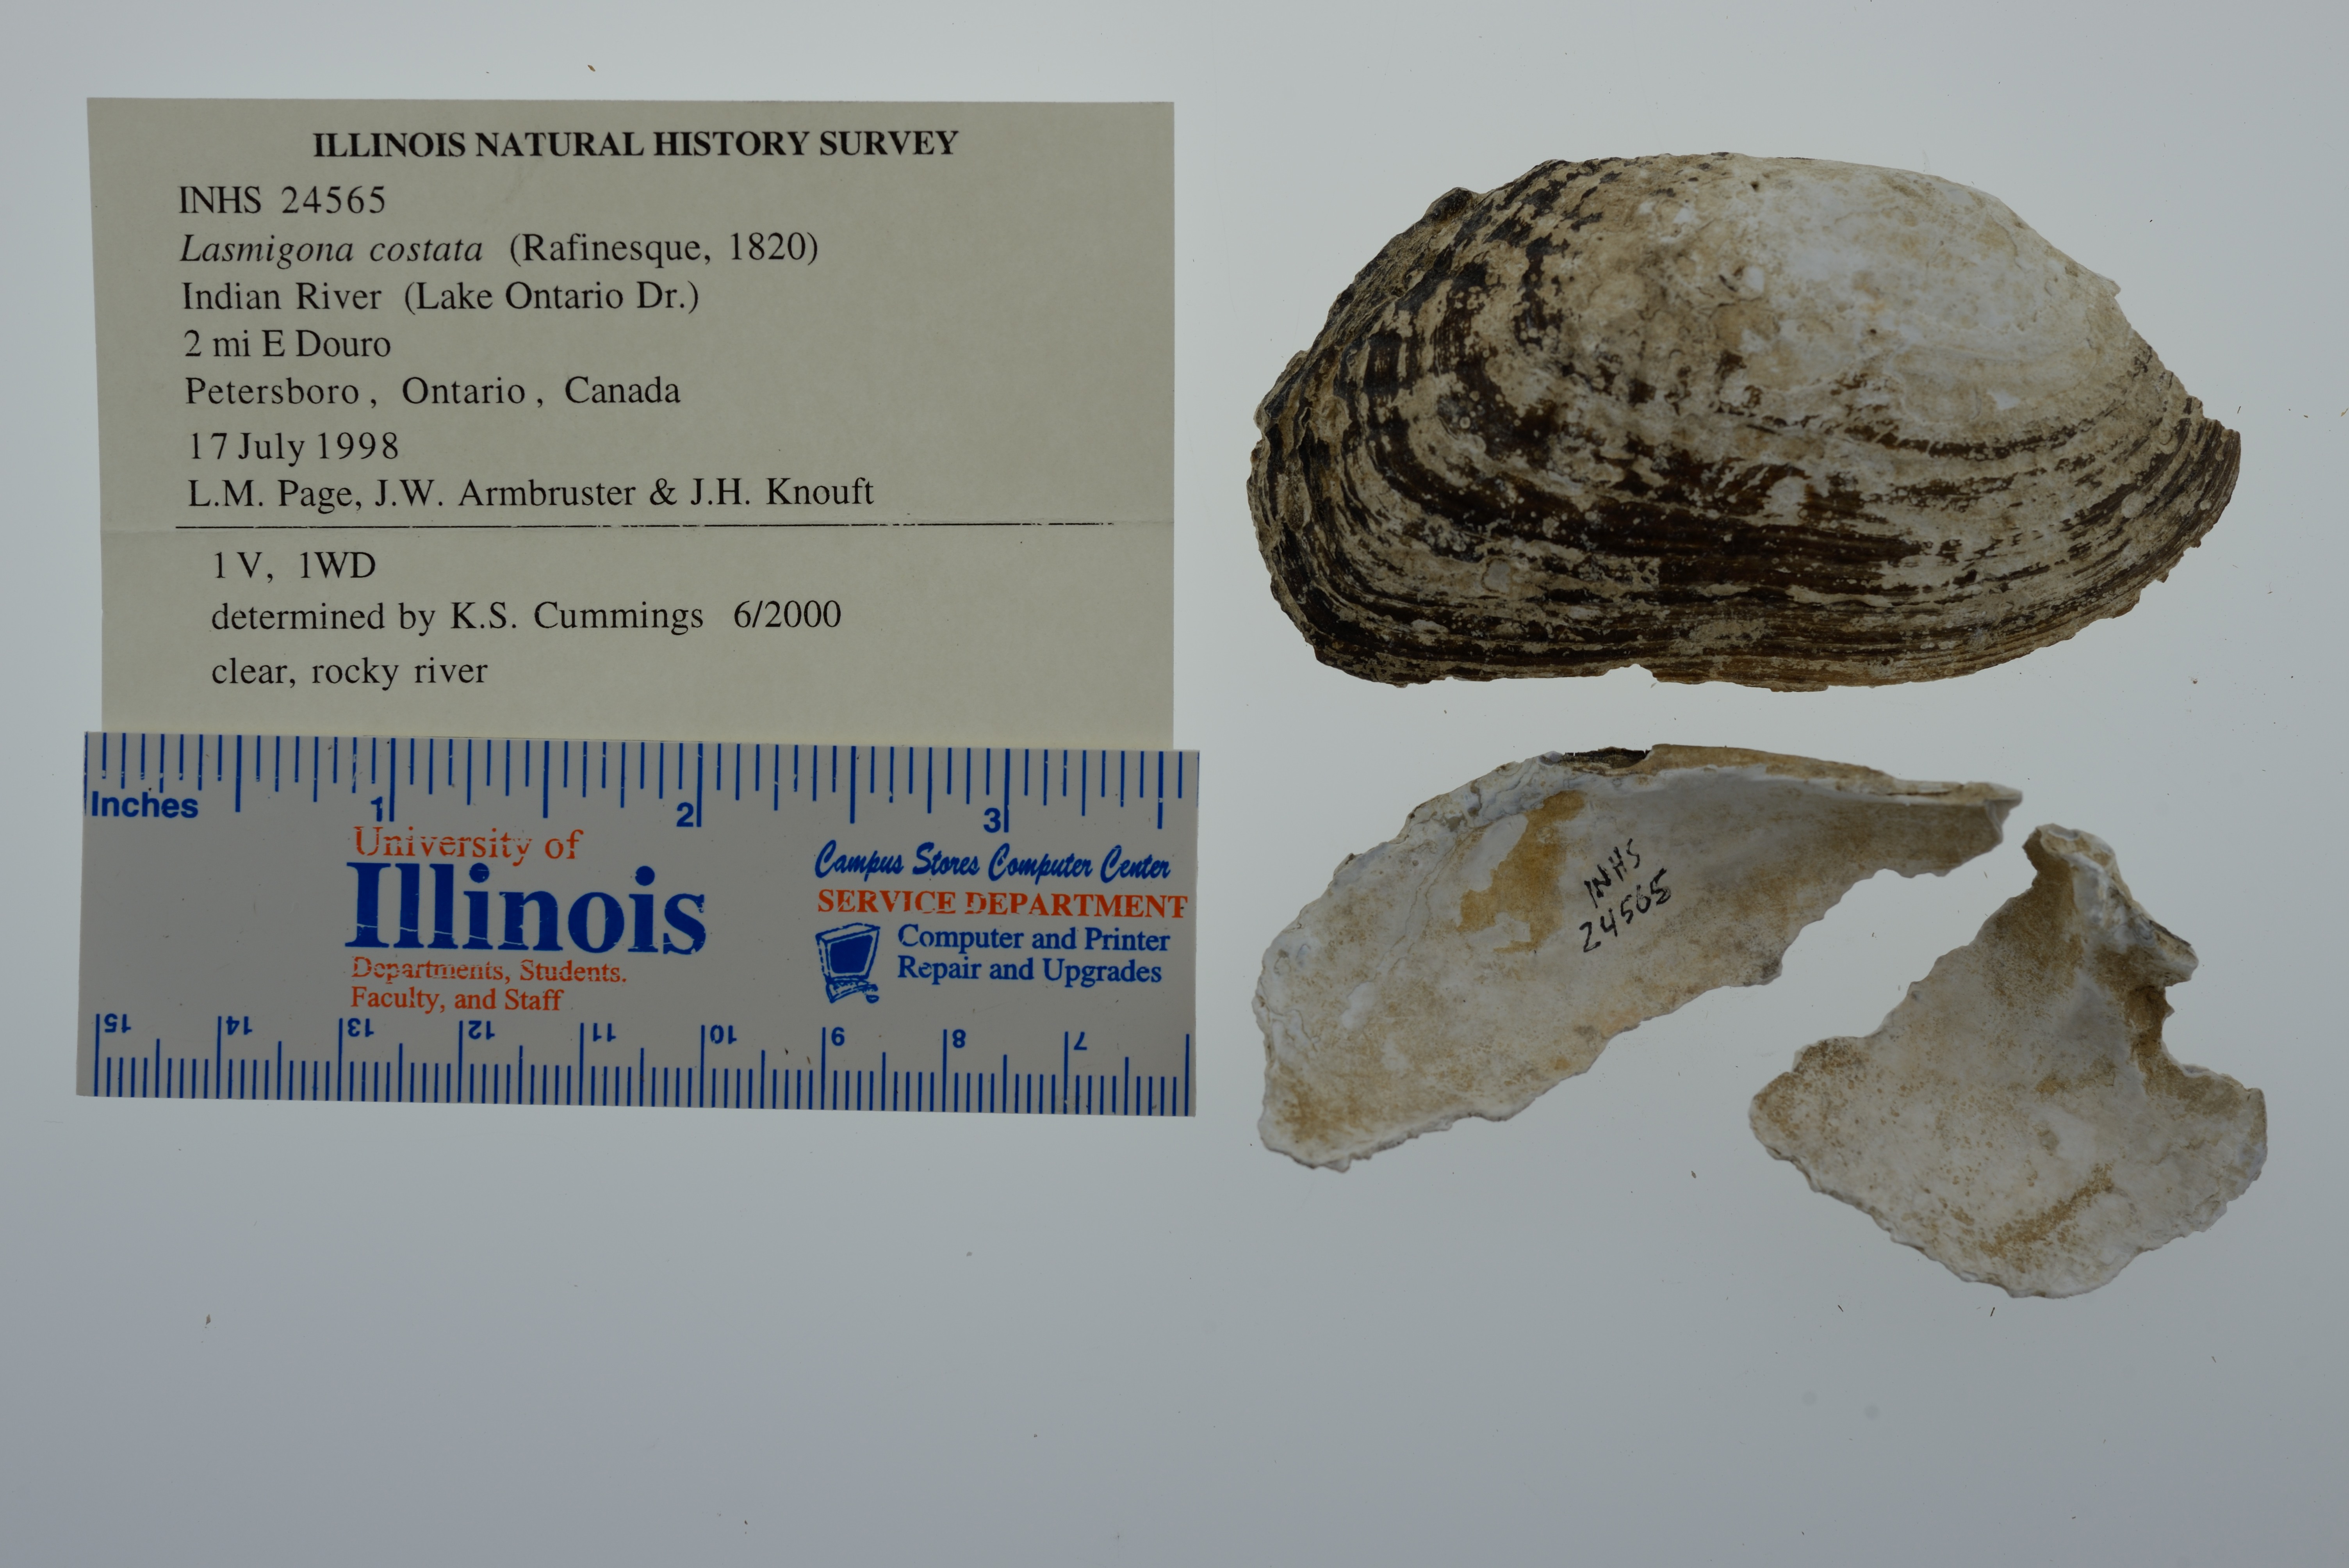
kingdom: Animalia
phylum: Mollusca
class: Bivalvia
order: Unionida
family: Unionidae
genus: Lasmigona
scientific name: Lasmigona costata
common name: Flutedshell
